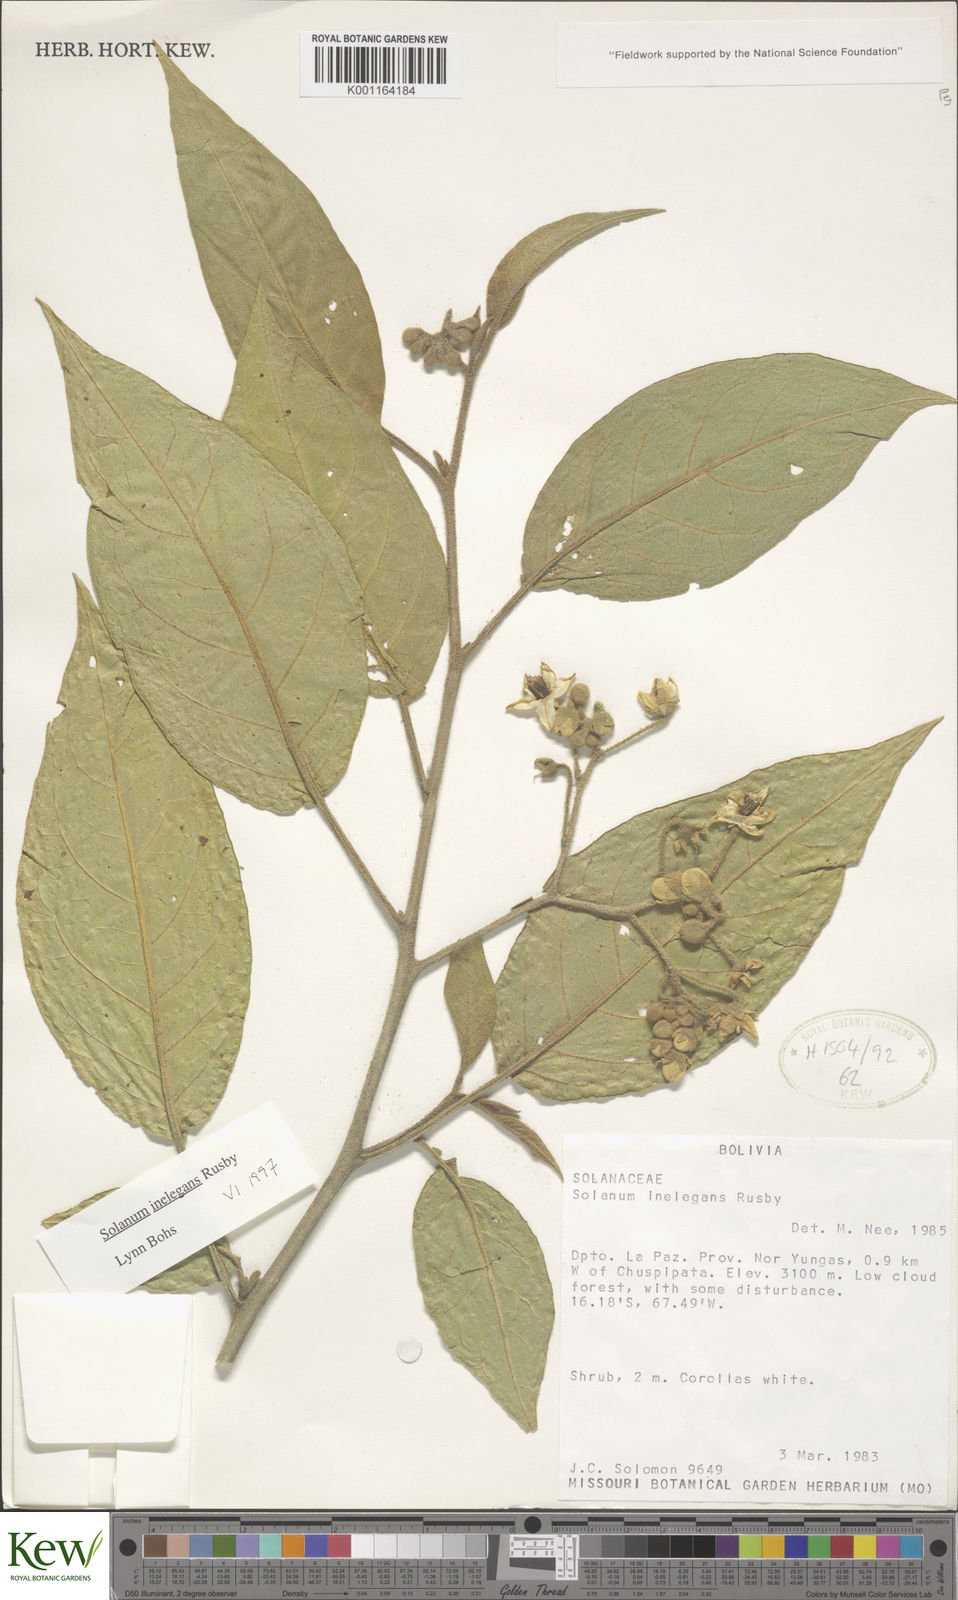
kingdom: Plantae
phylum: Tracheophyta
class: Magnoliopsida
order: Solanales
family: Solanaceae
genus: Solanum
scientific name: Solanum inelegans
